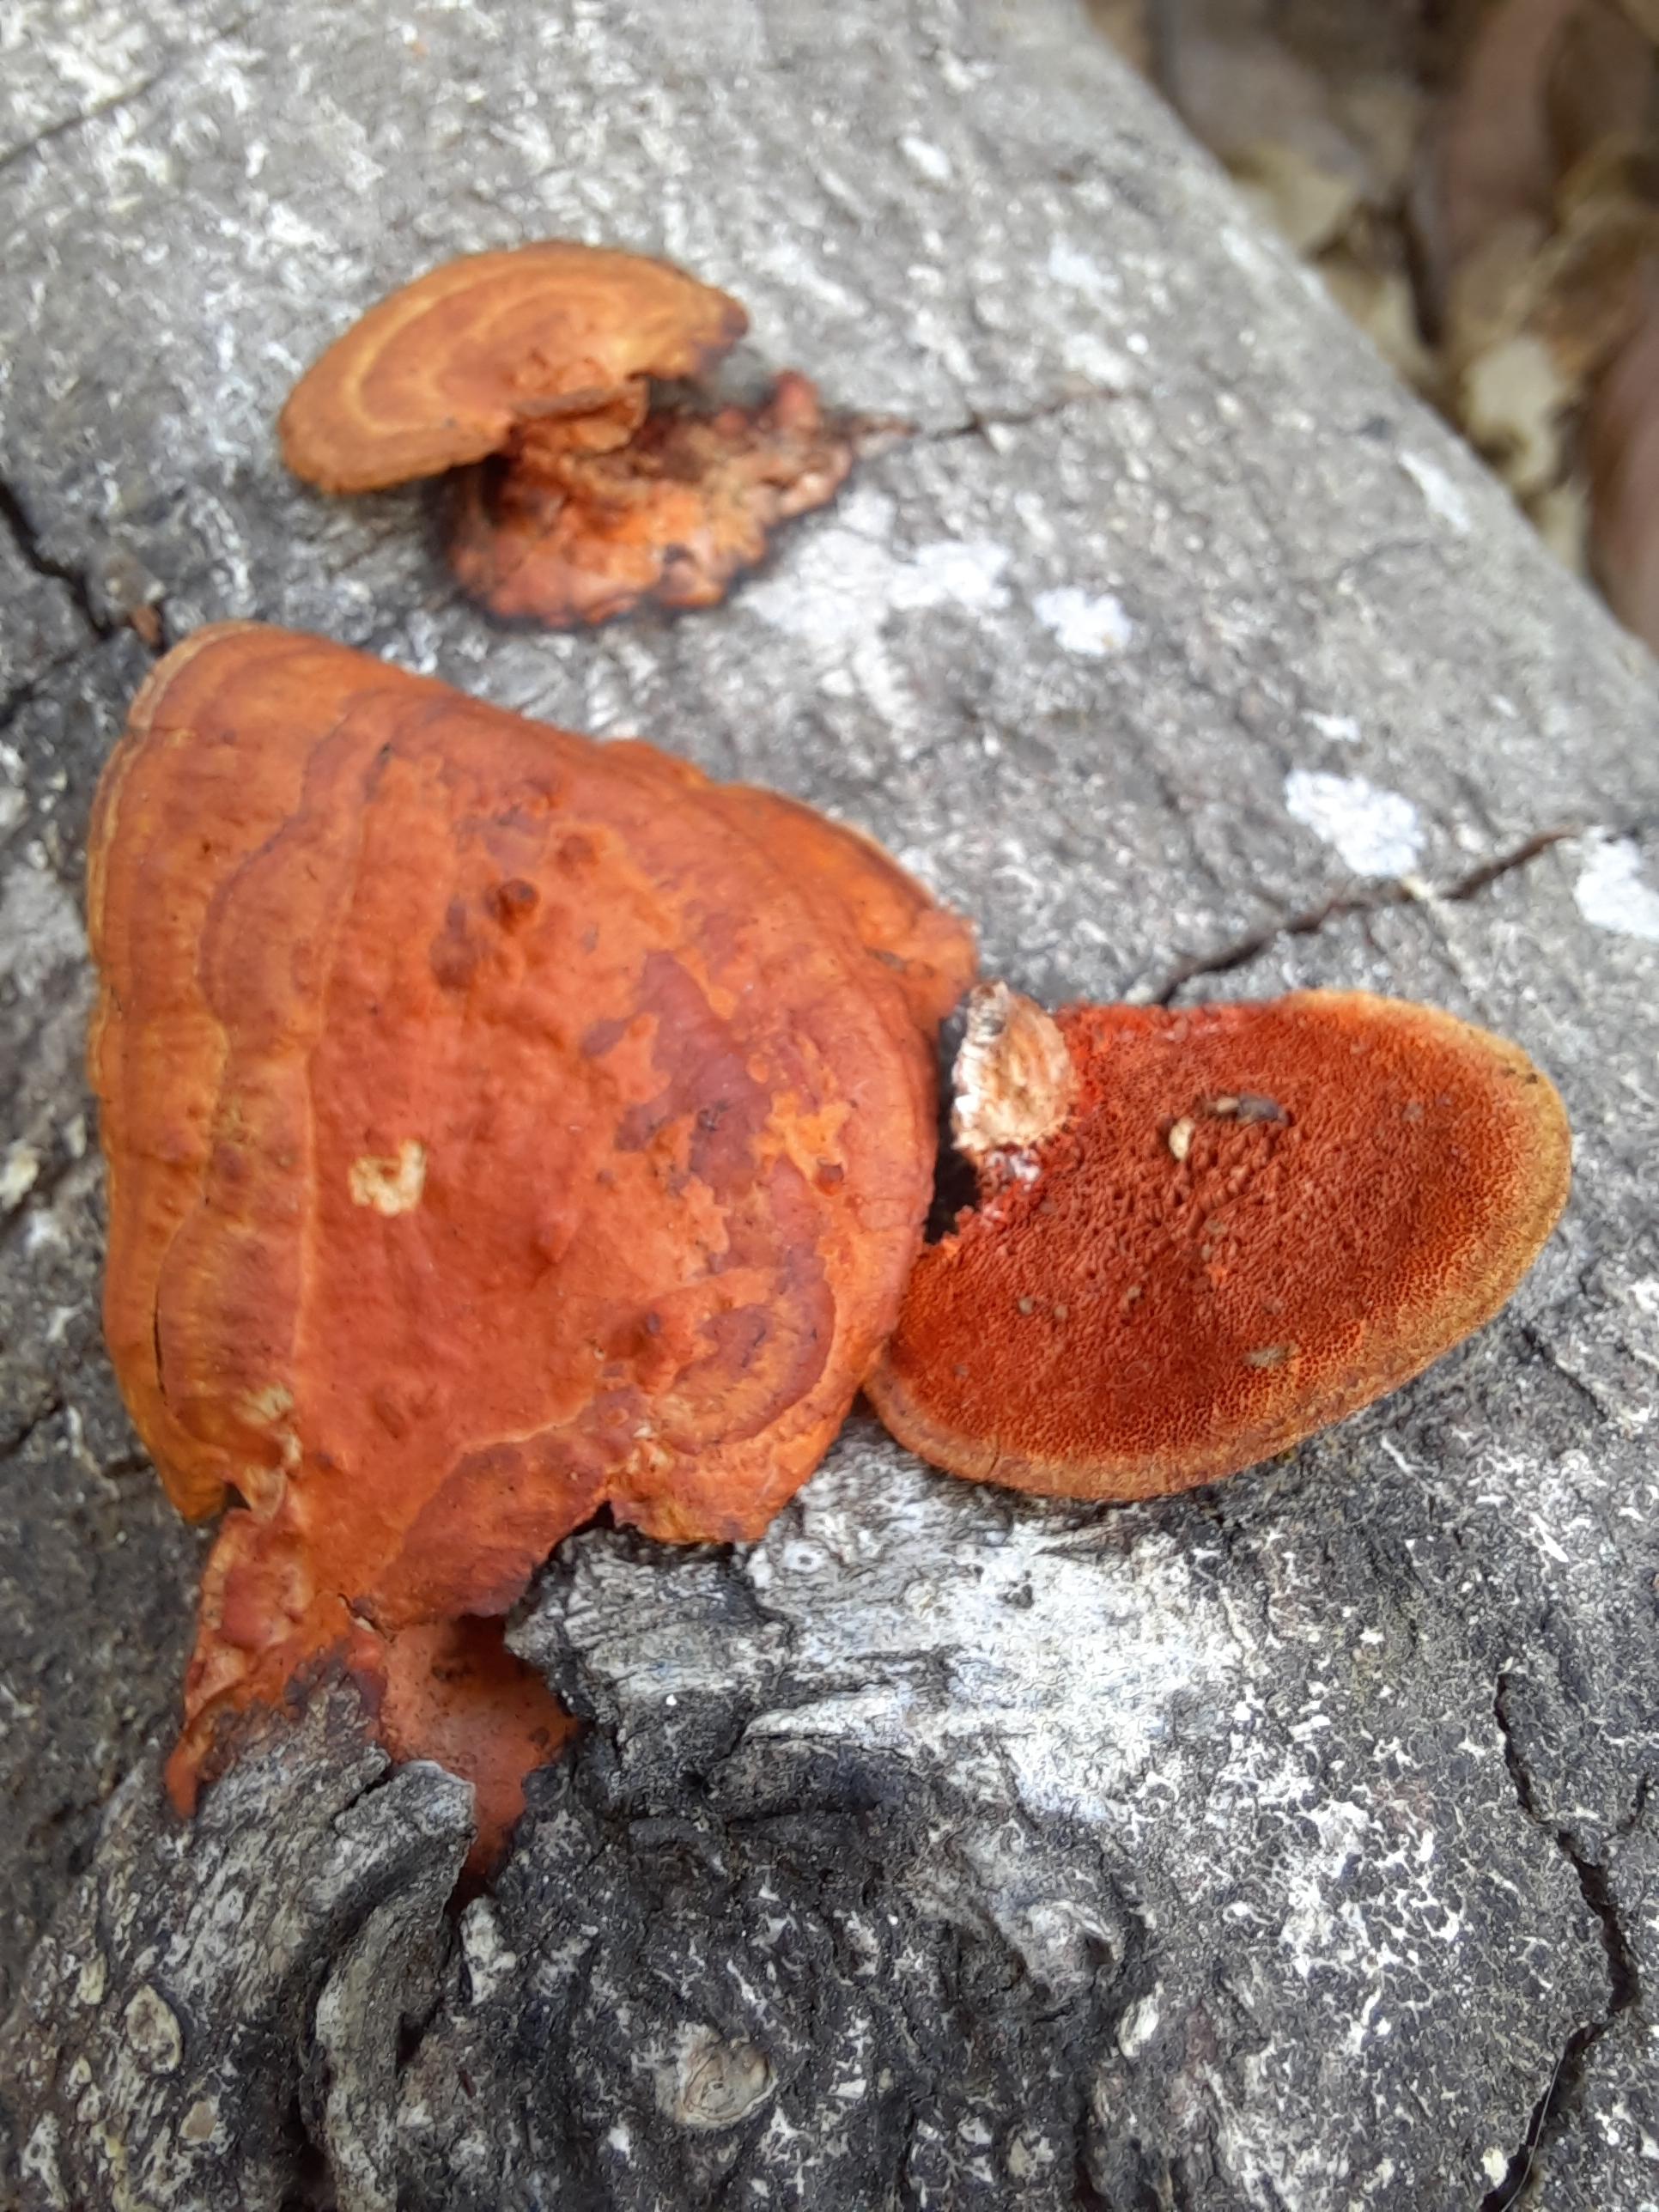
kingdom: Fungi
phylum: Basidiomycota
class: Agaricomycetes
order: Polyporales
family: Polyporaceae
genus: Fabisporus
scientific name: Fabisporus sanguineus
